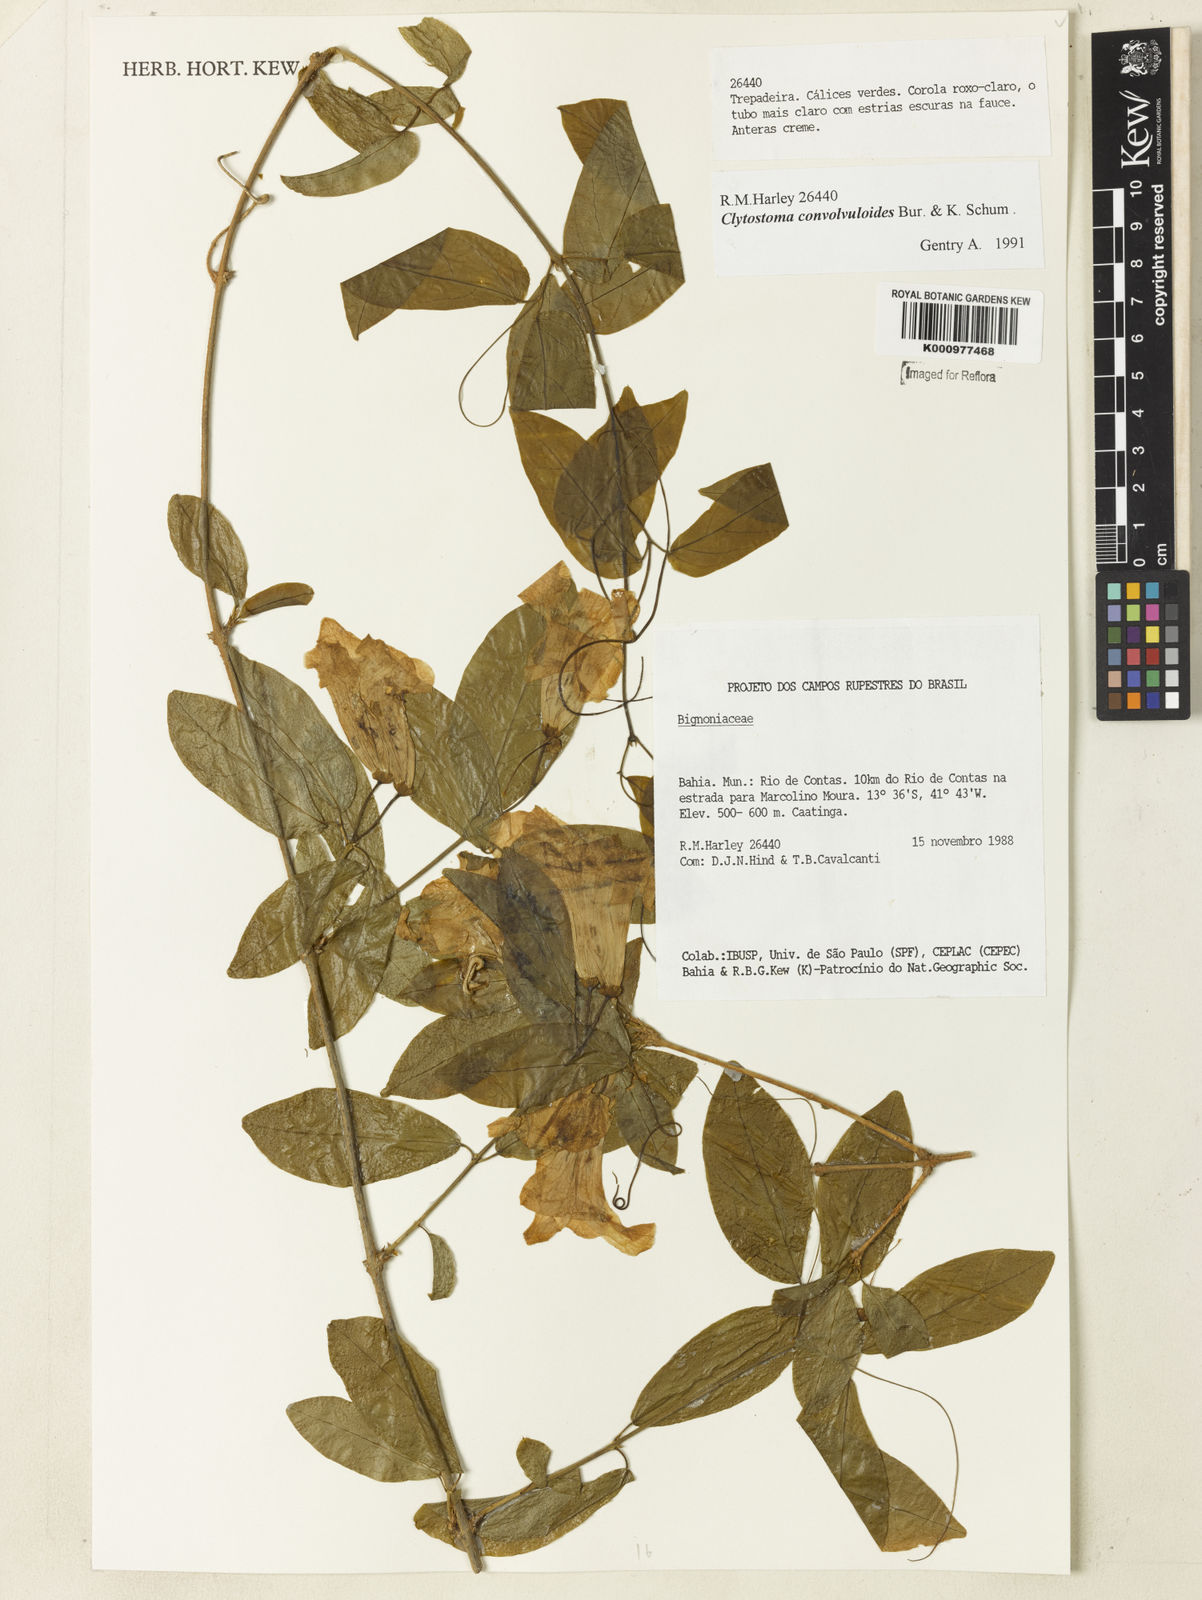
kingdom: Plantae
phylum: Tracheophyta
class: Magnoliopsida
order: Lamiales
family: Bignoniaceae
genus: Bignonia
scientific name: Bignonia uleana
